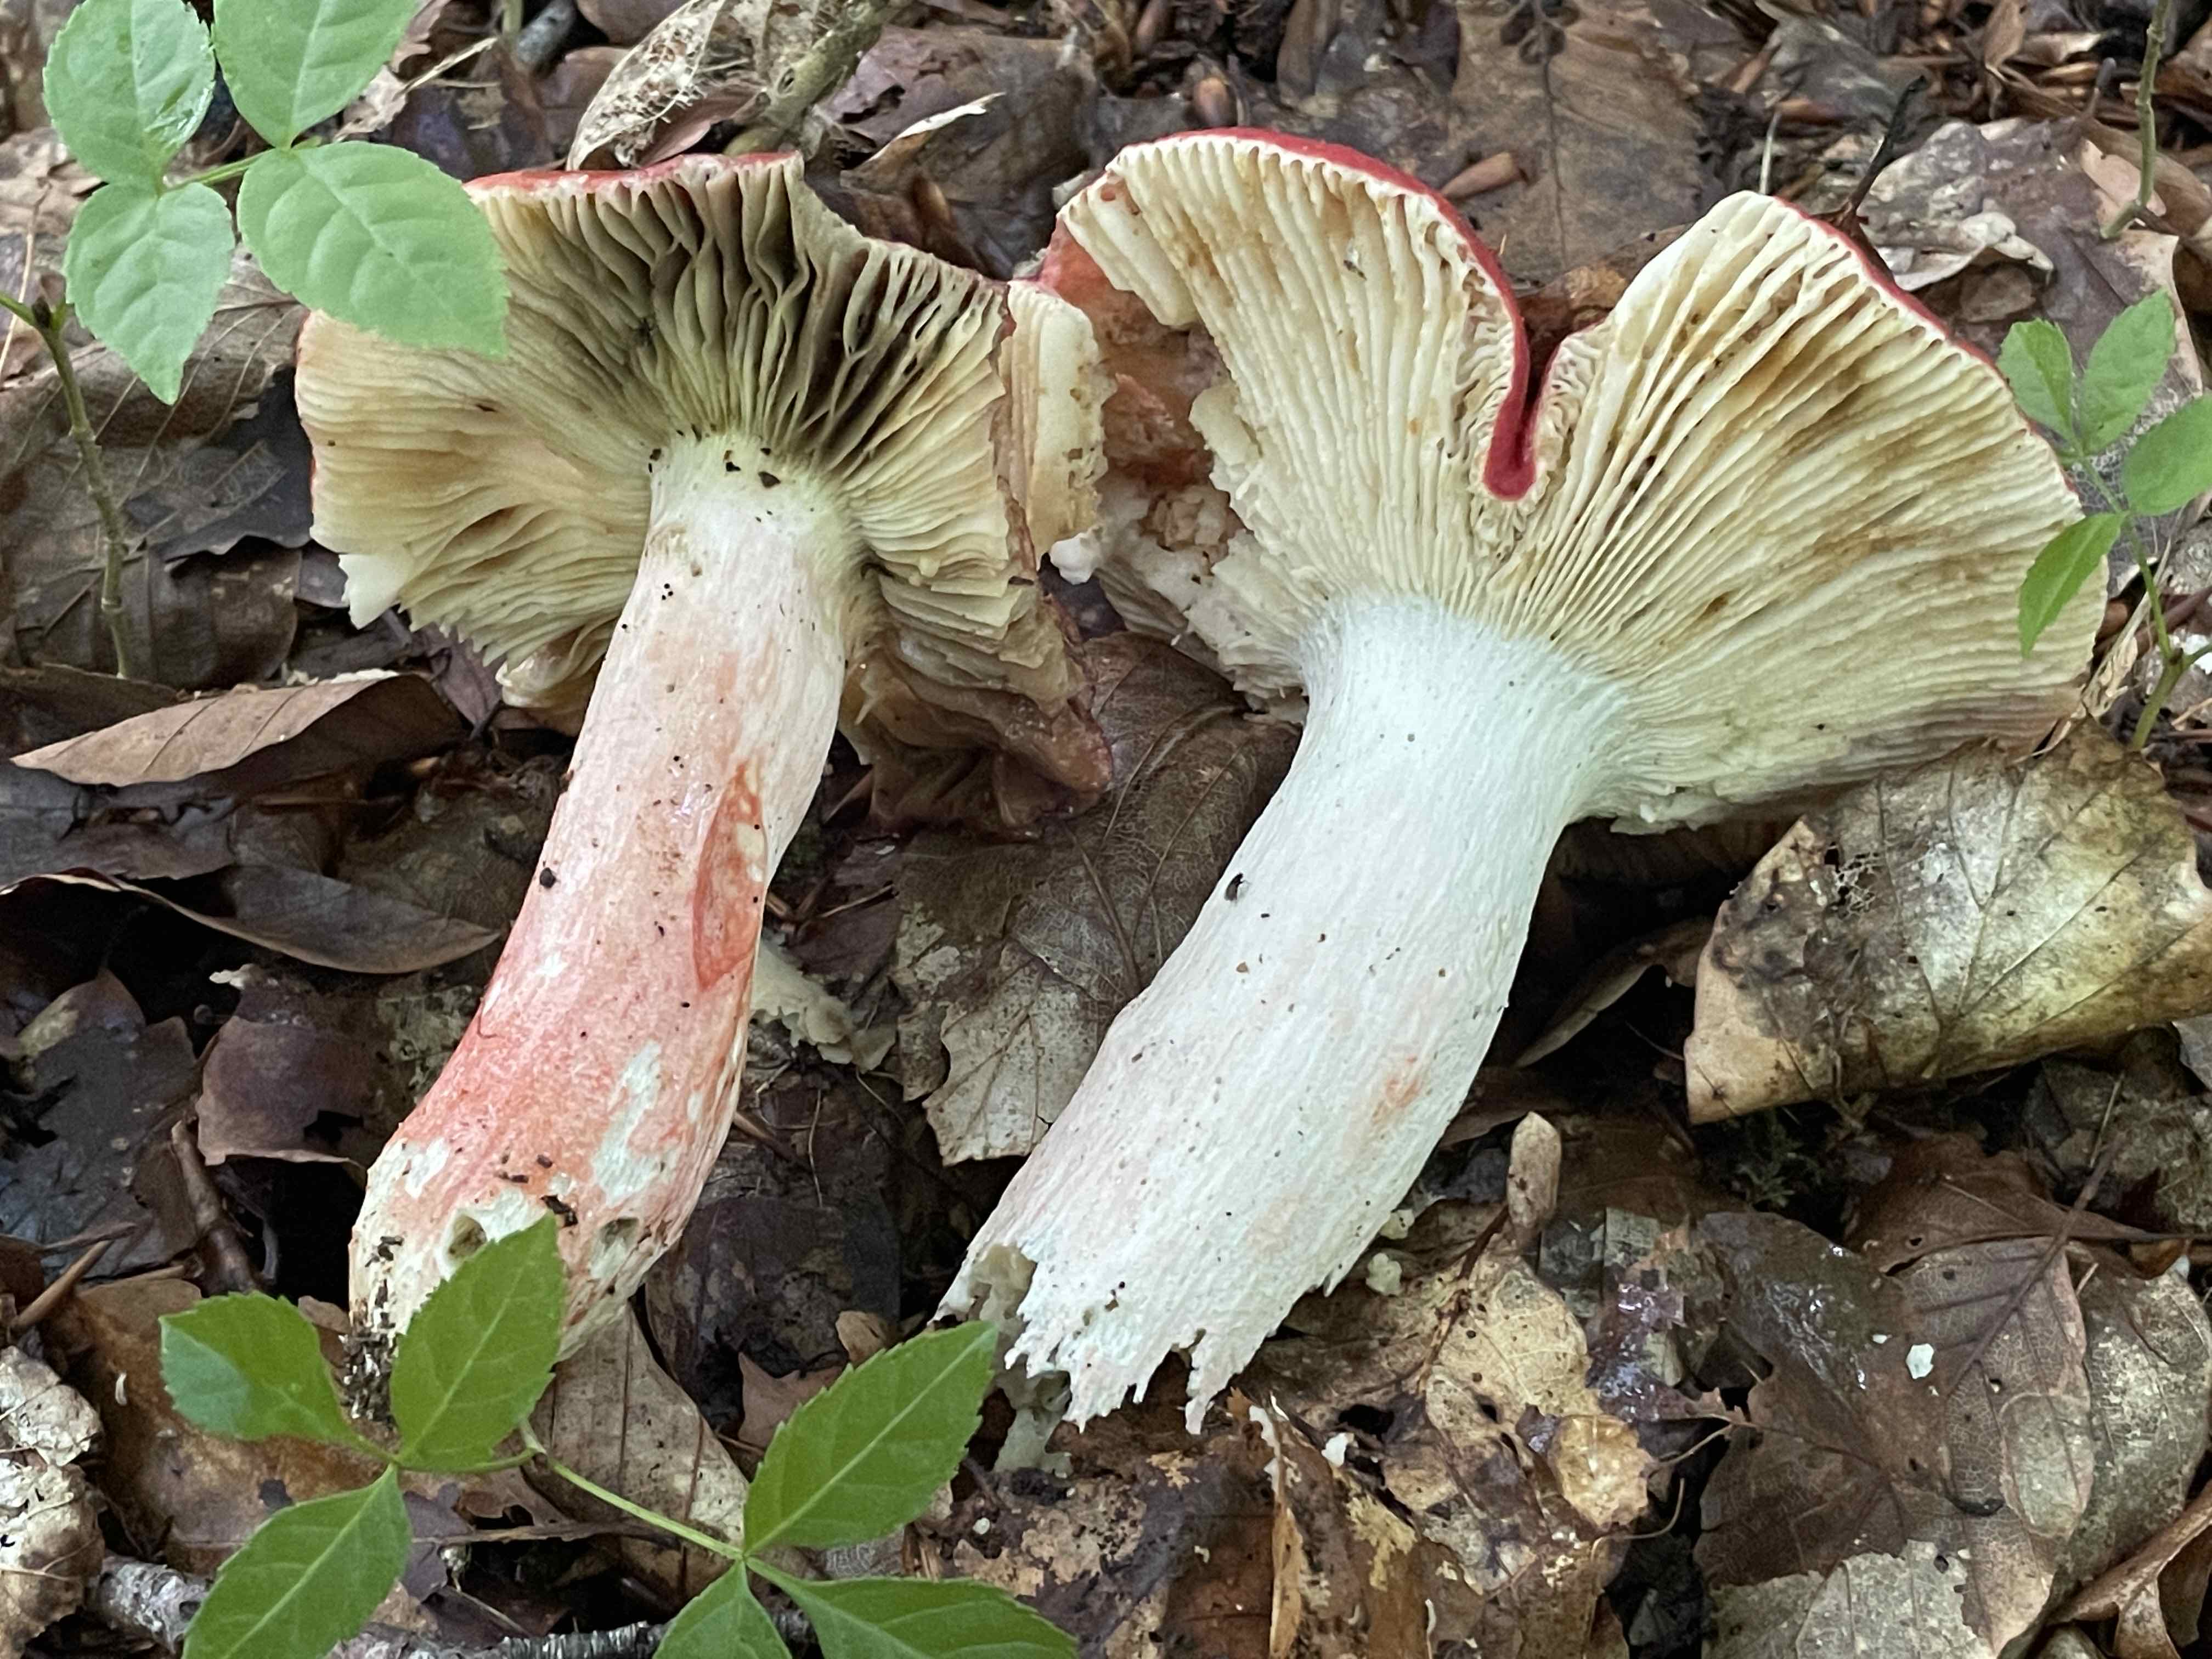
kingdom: Fungi
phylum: Basidiomycota
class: Agaricomycetes
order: Russulales
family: Russulaceae
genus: Russula
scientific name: Russula
